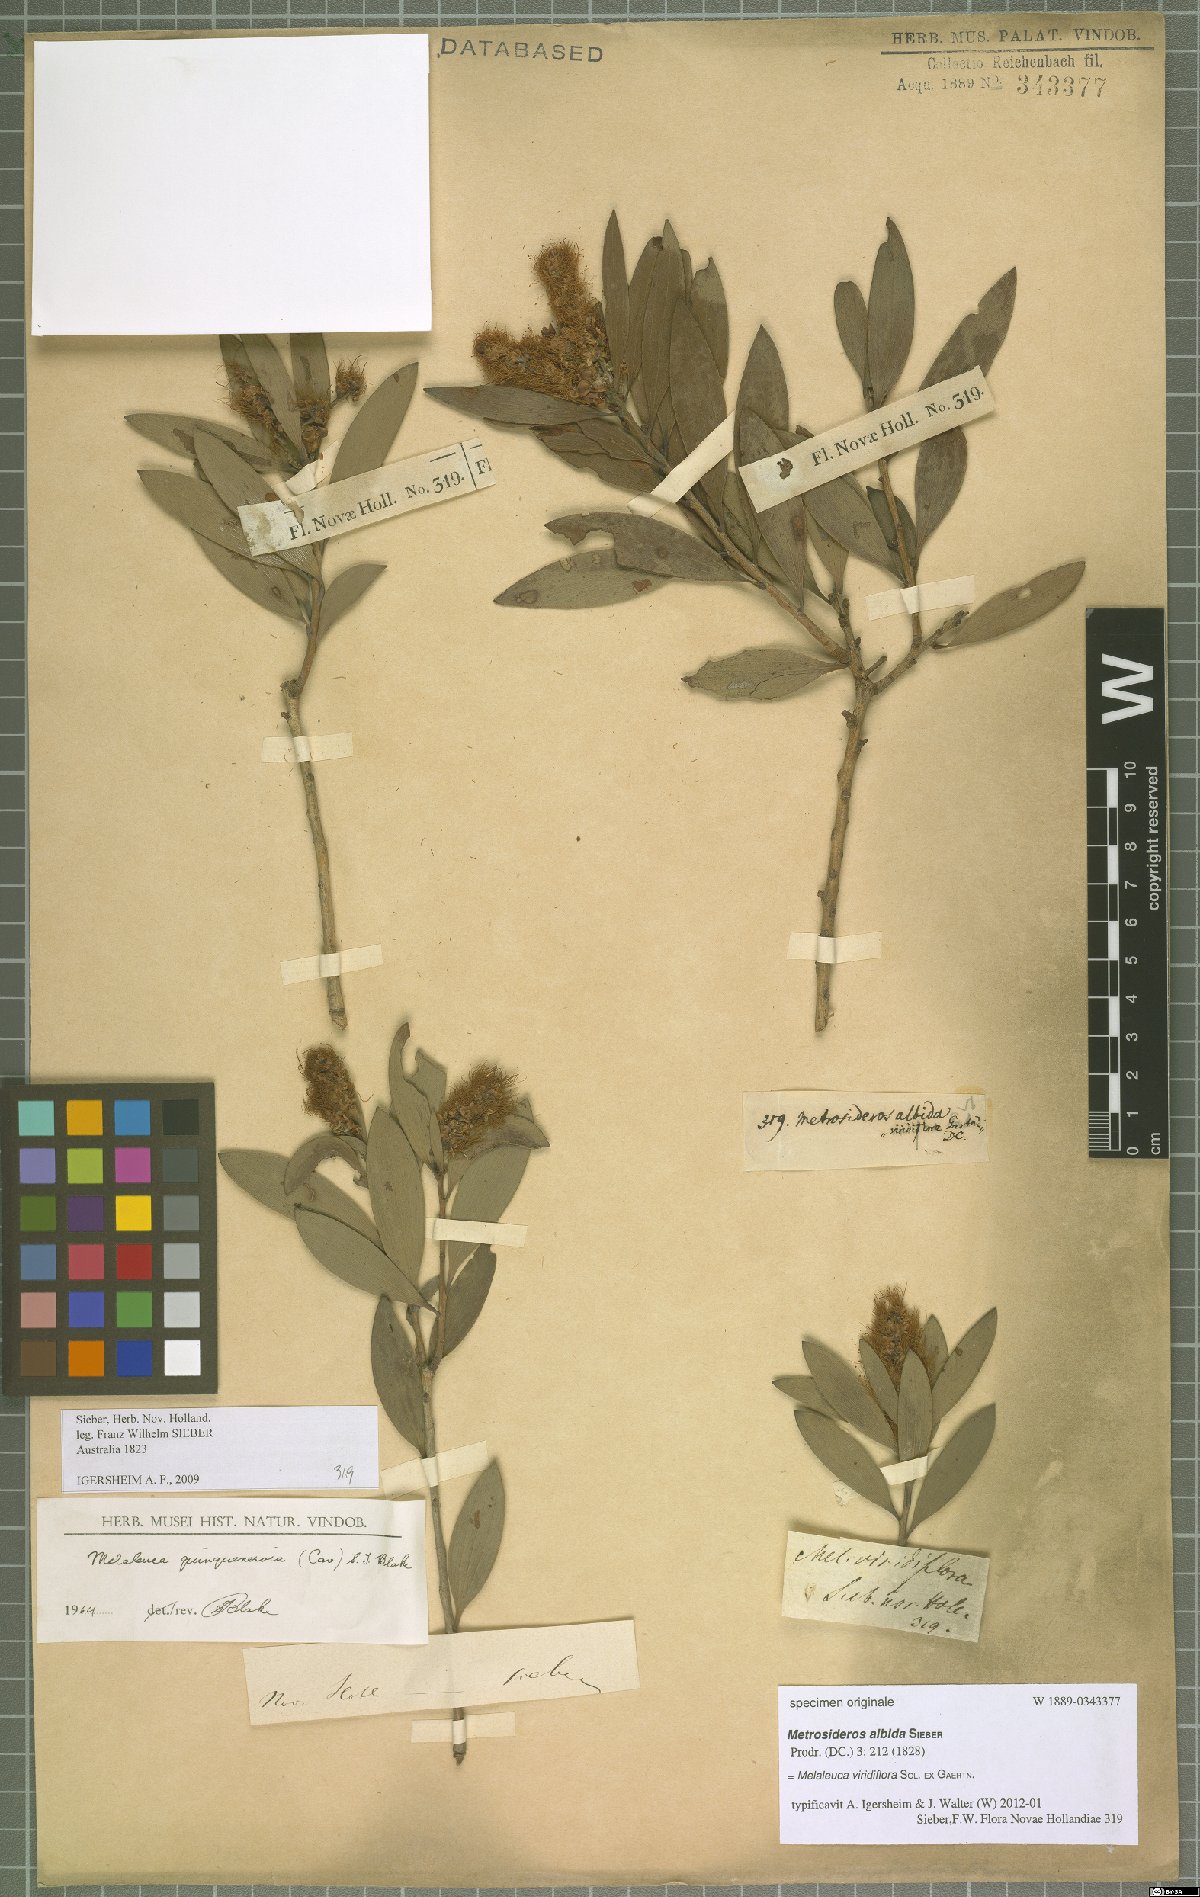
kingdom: Plantae
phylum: Tracheophyta
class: Magnoliopsida
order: Myrtales
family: Myrtaceae
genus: Melaleuca
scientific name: Melaleuca viridiflora
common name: Brown-leaved paperbark
